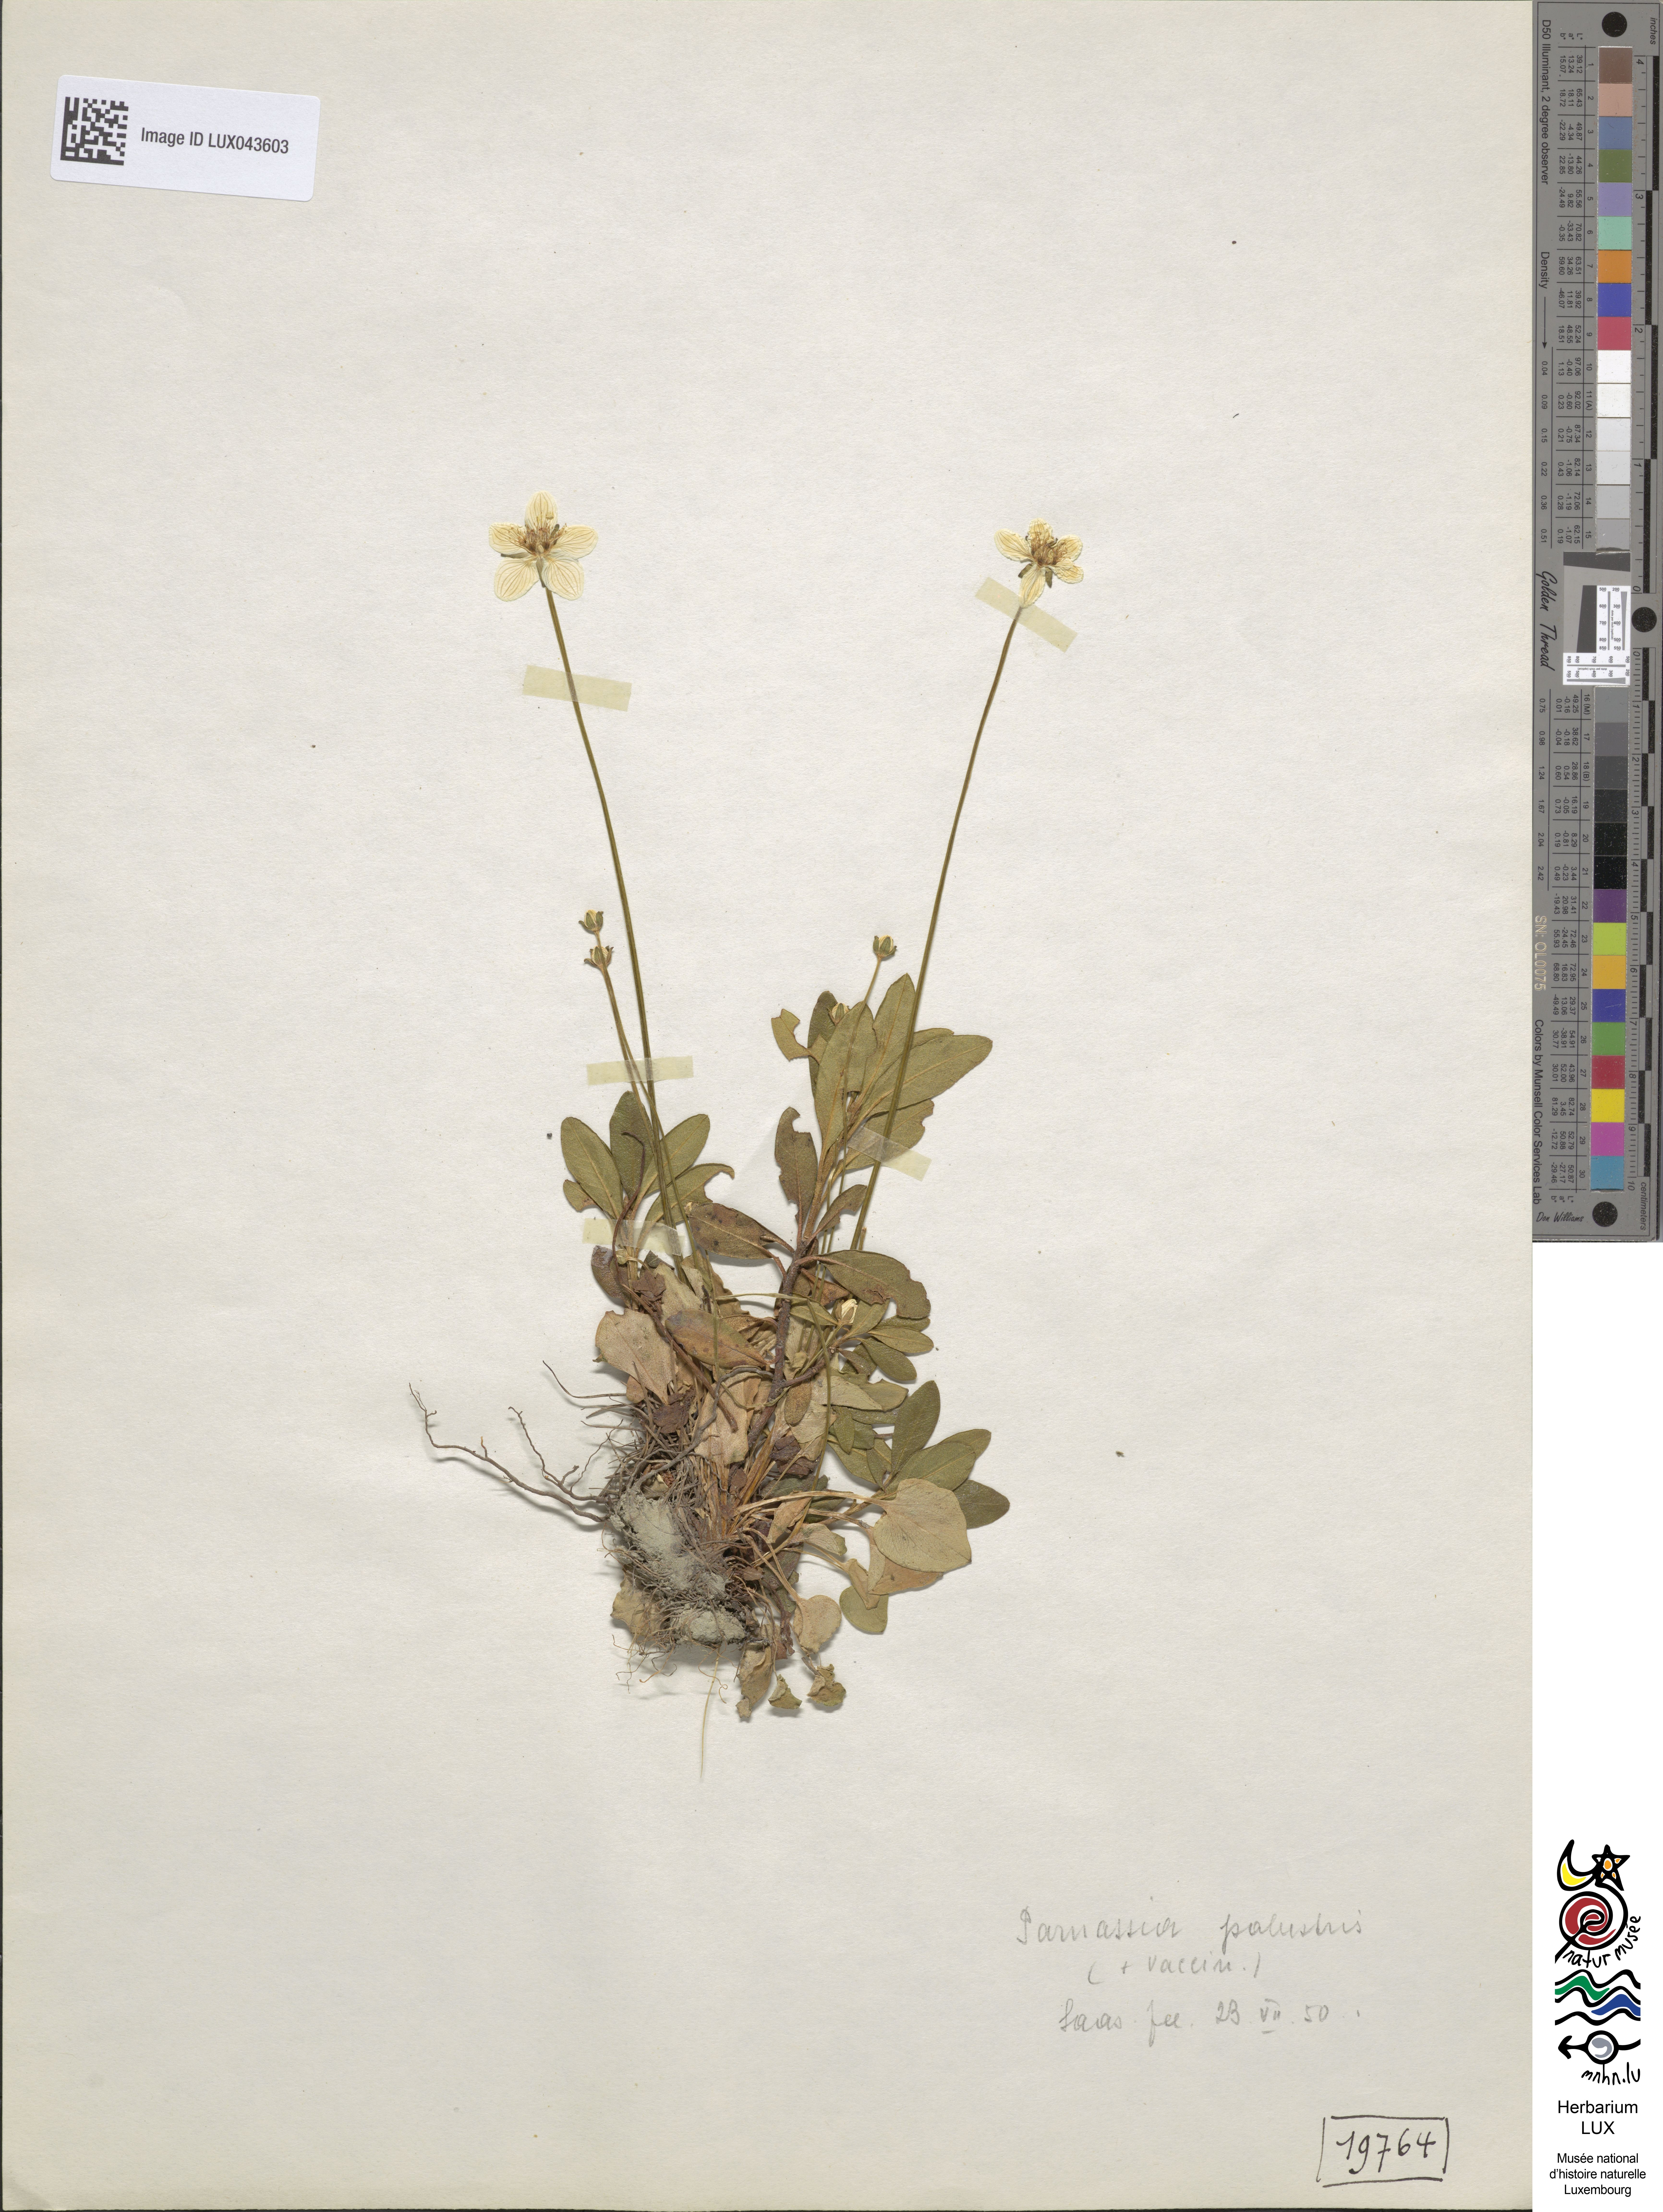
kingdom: Plantae
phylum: Tracheophyta
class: Magnoliopsida
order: Celastrales
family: Parnassiaceae
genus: Parnassia
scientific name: Parnassia palustris
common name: Grass-of-parnassus
